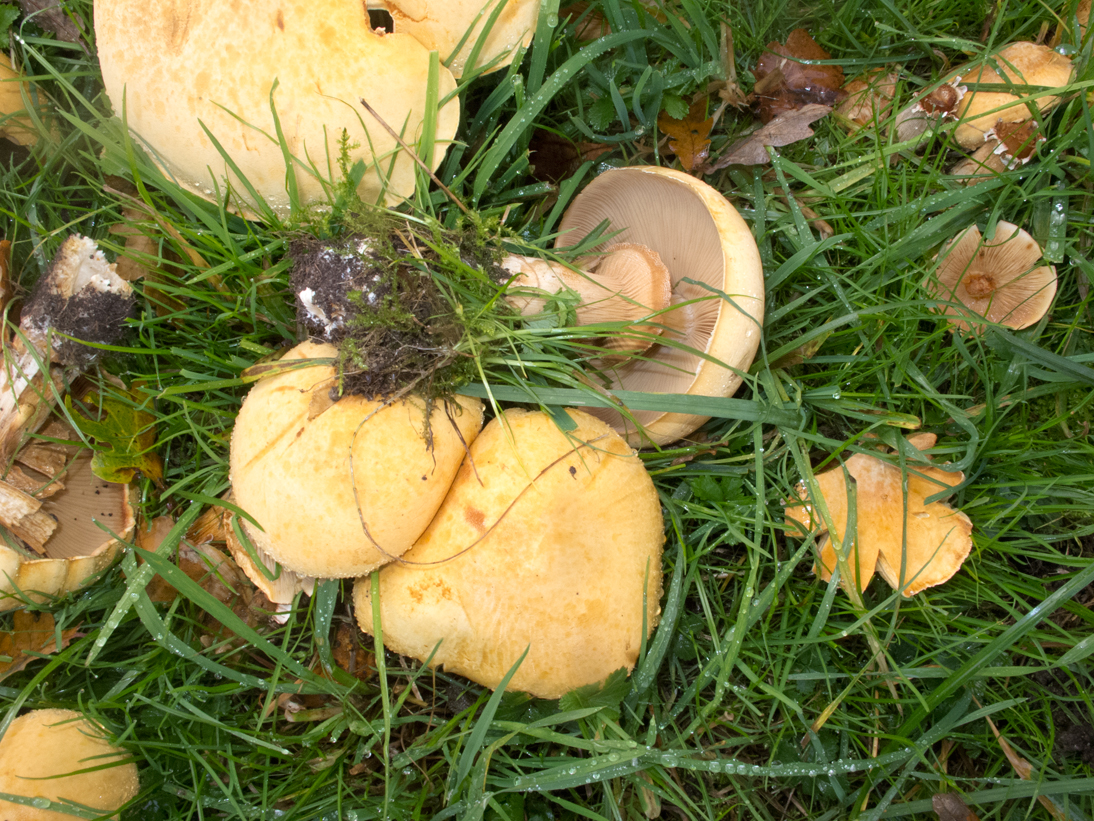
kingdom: Fungi
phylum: Basidiomycota
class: Agaricomycetes
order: Agaricales
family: Tricholomataceae
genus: Phaeolepiota
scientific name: Phaeolepiota aurea
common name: gyldenhat
